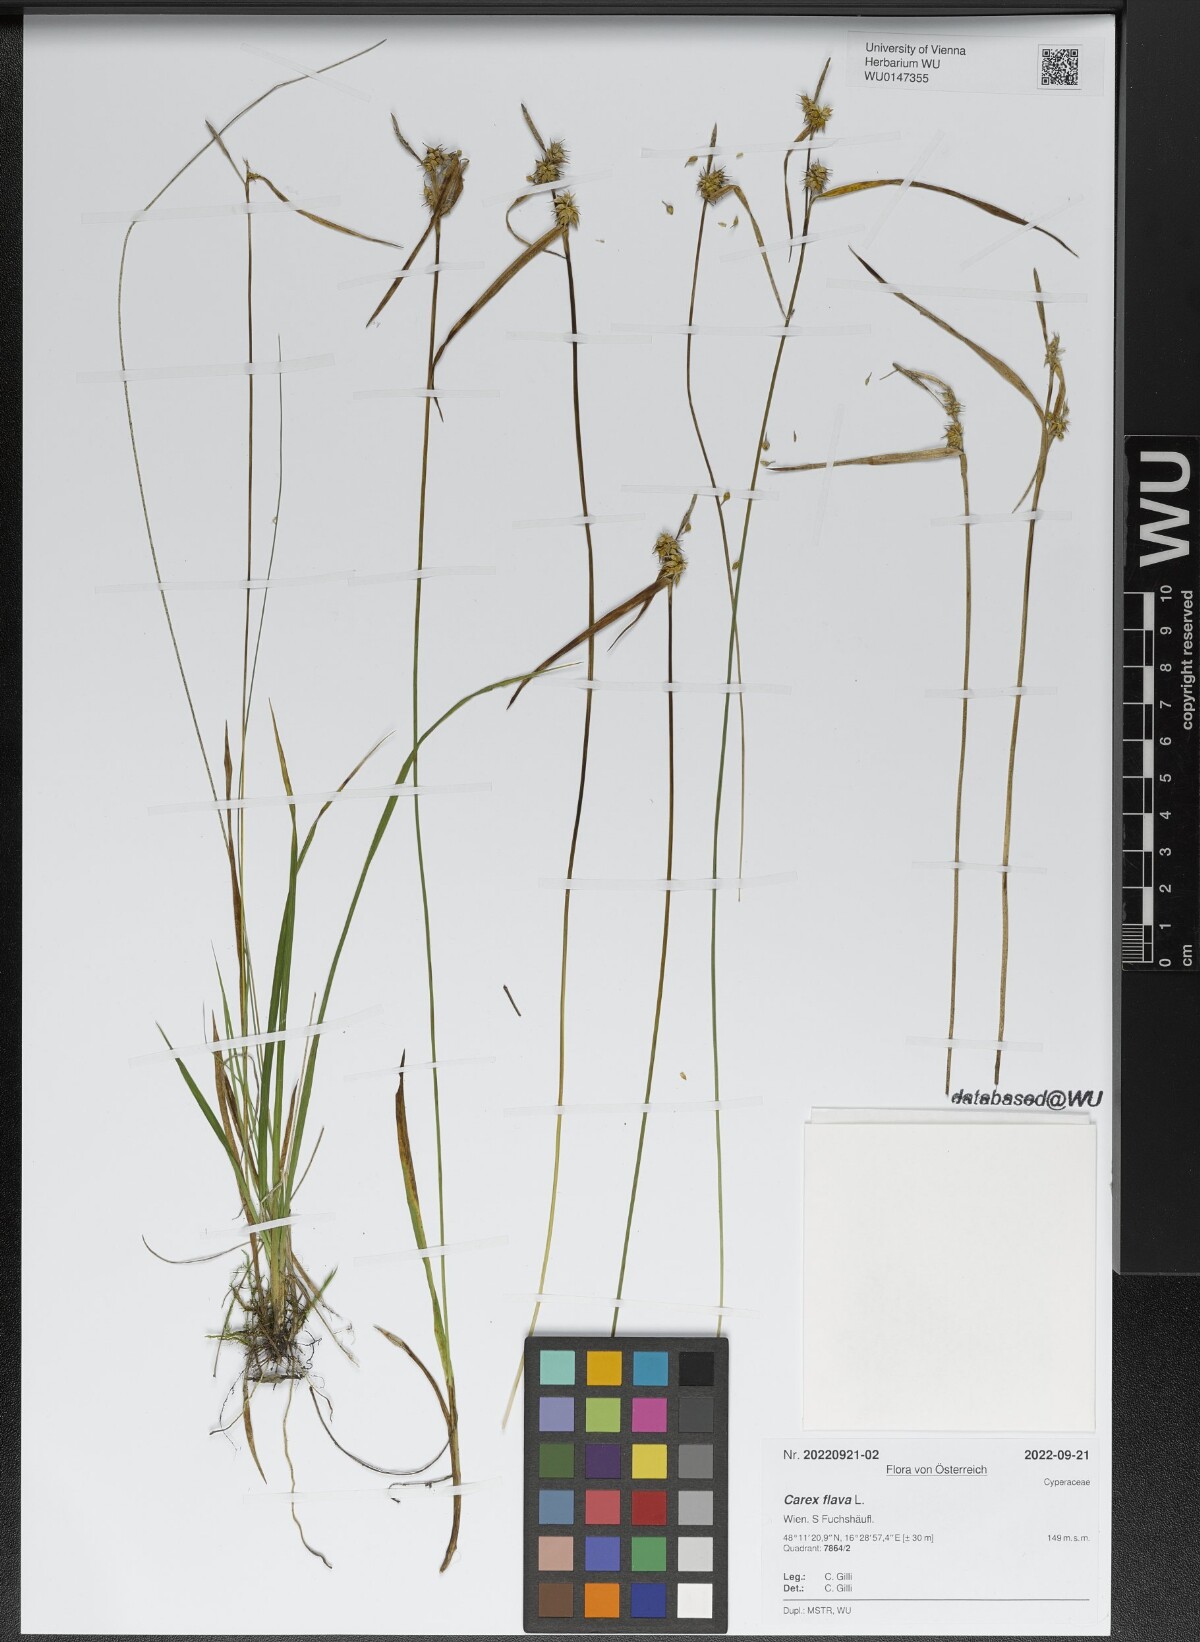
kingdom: Plantae
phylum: Tracheophyta
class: Liliopsida
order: Poales
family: Cyperaceae
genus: Carex
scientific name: Carex flava
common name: Large yellow-sedge
